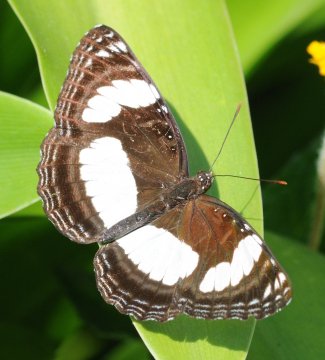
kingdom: Animalia
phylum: Arthropoda
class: Insecta
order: Lepidoptera
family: Nymphalidae
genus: Neptis
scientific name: Neptis laeta
